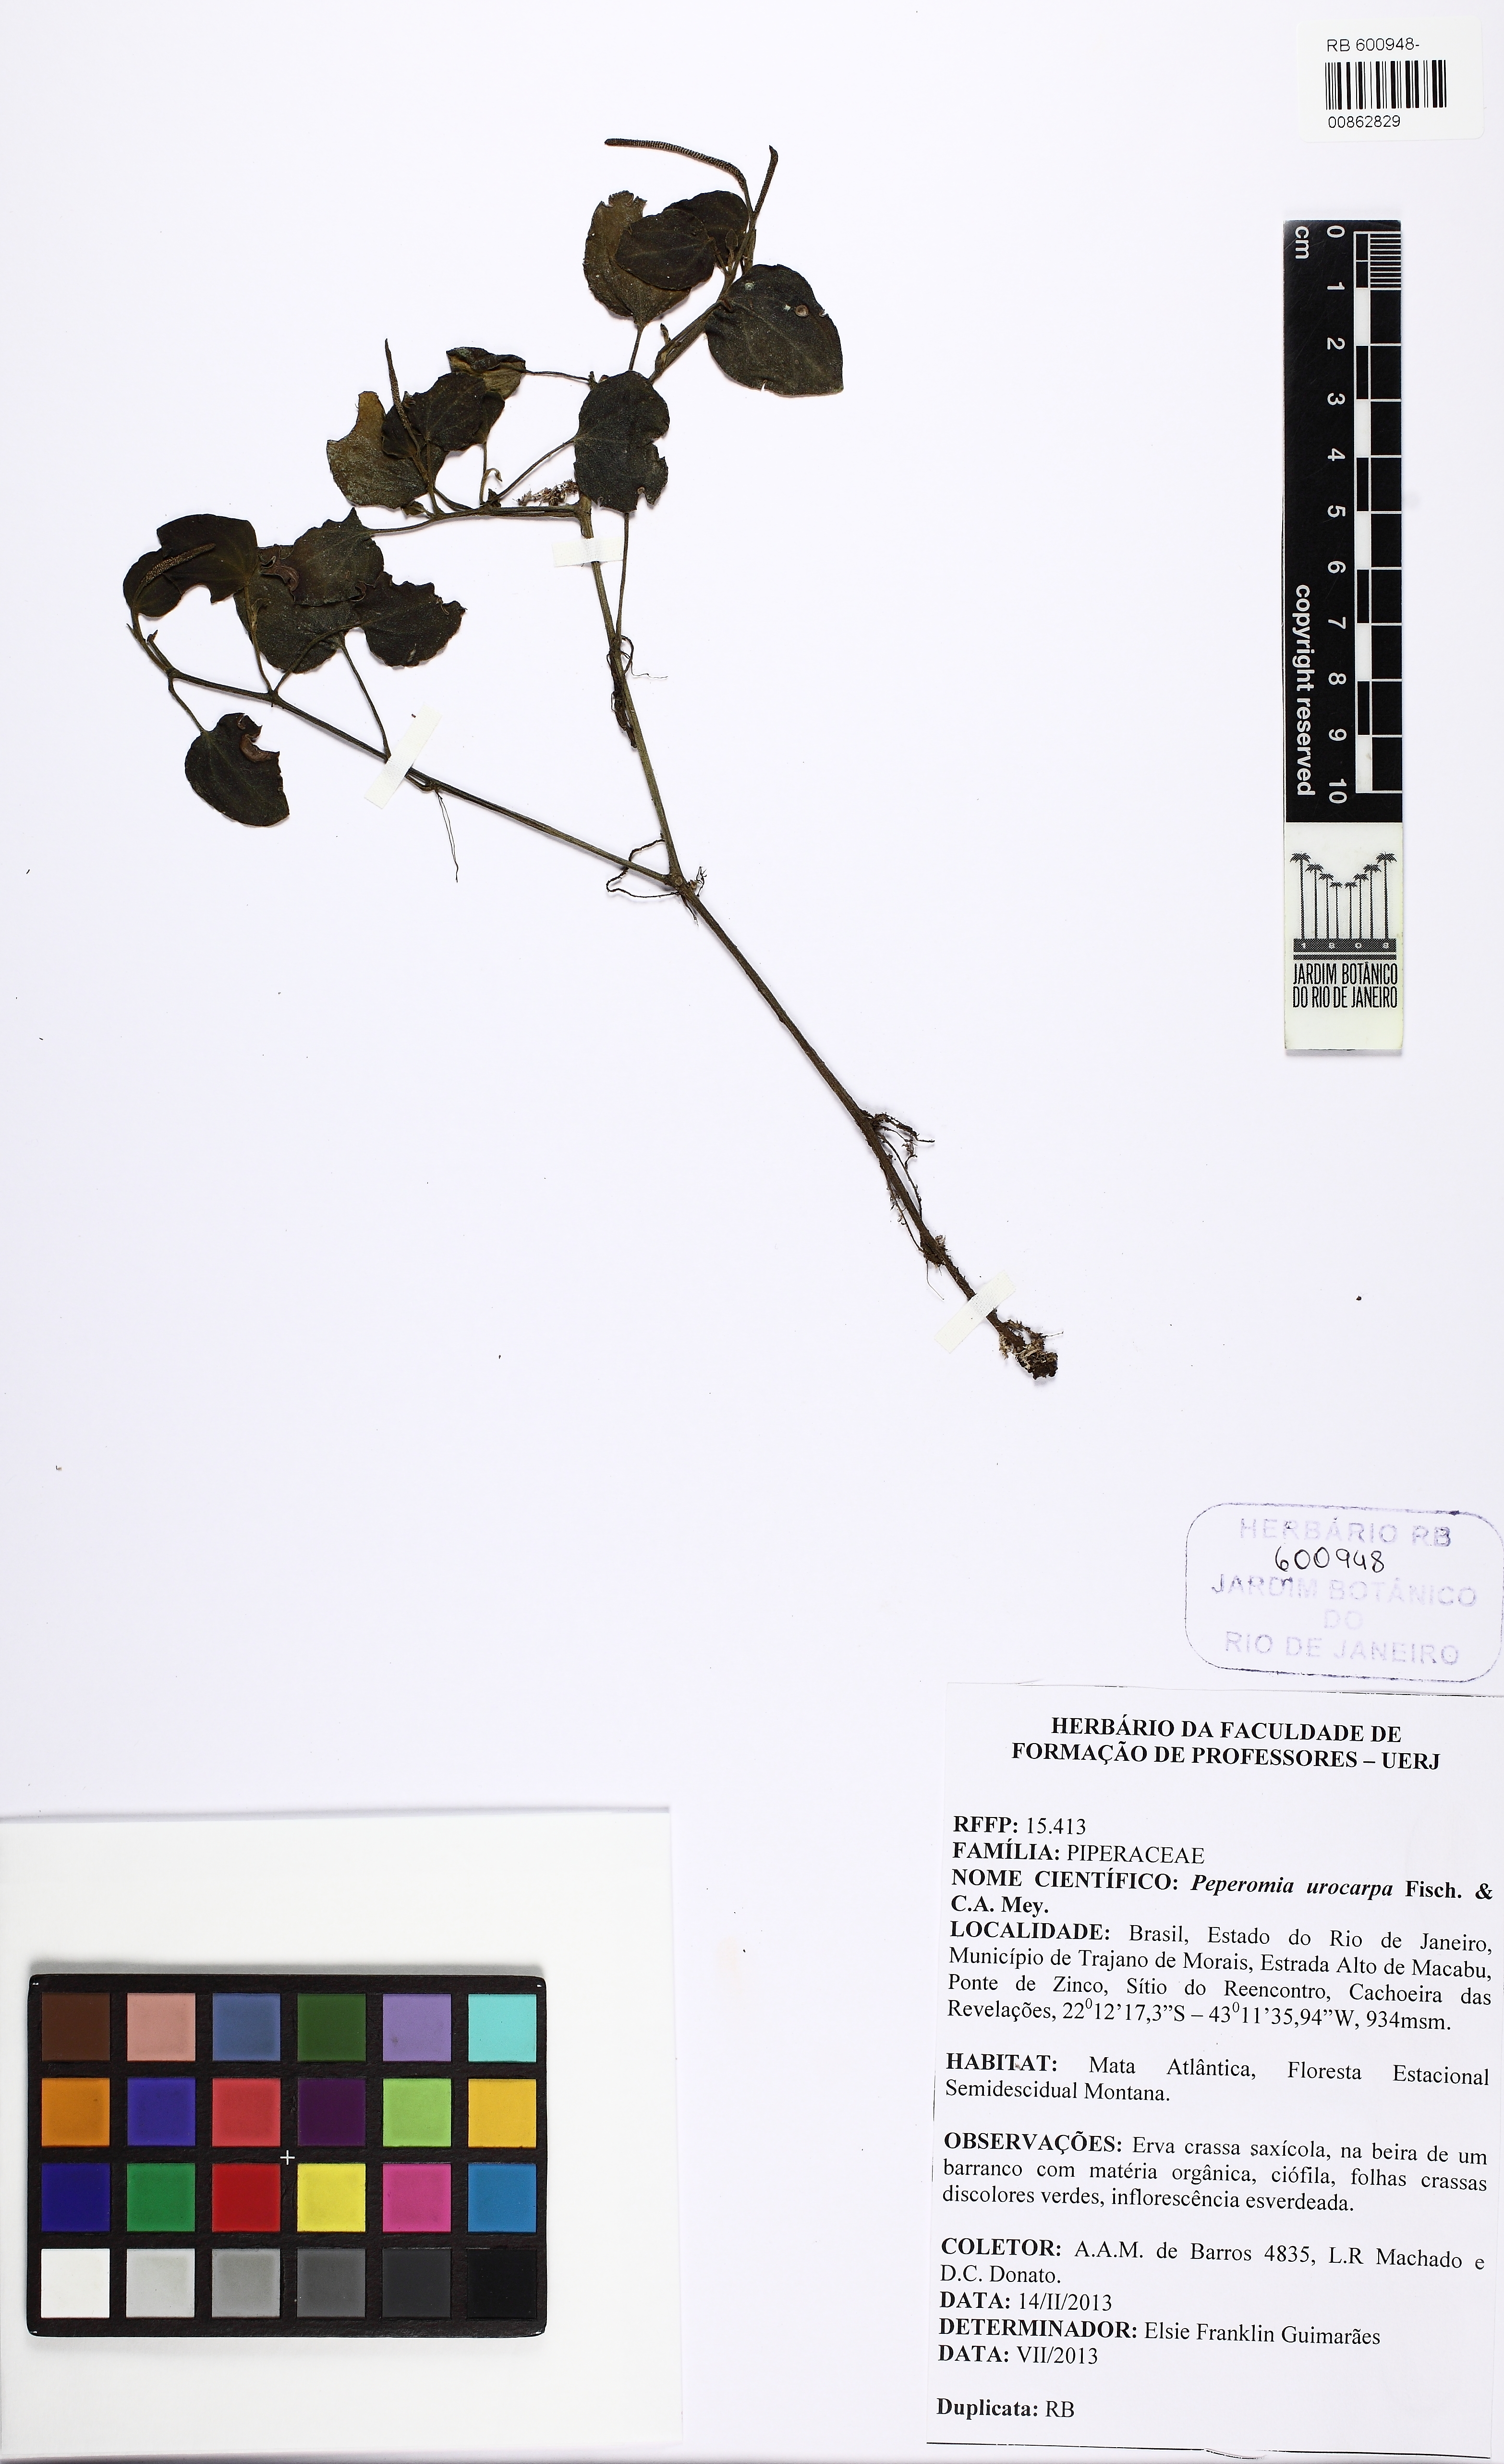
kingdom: Plantae
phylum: Tracheophyta
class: Magnoliopsida
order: Piperales
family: Piperaceae
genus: Peperomia
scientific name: Peperomia urocarpa
